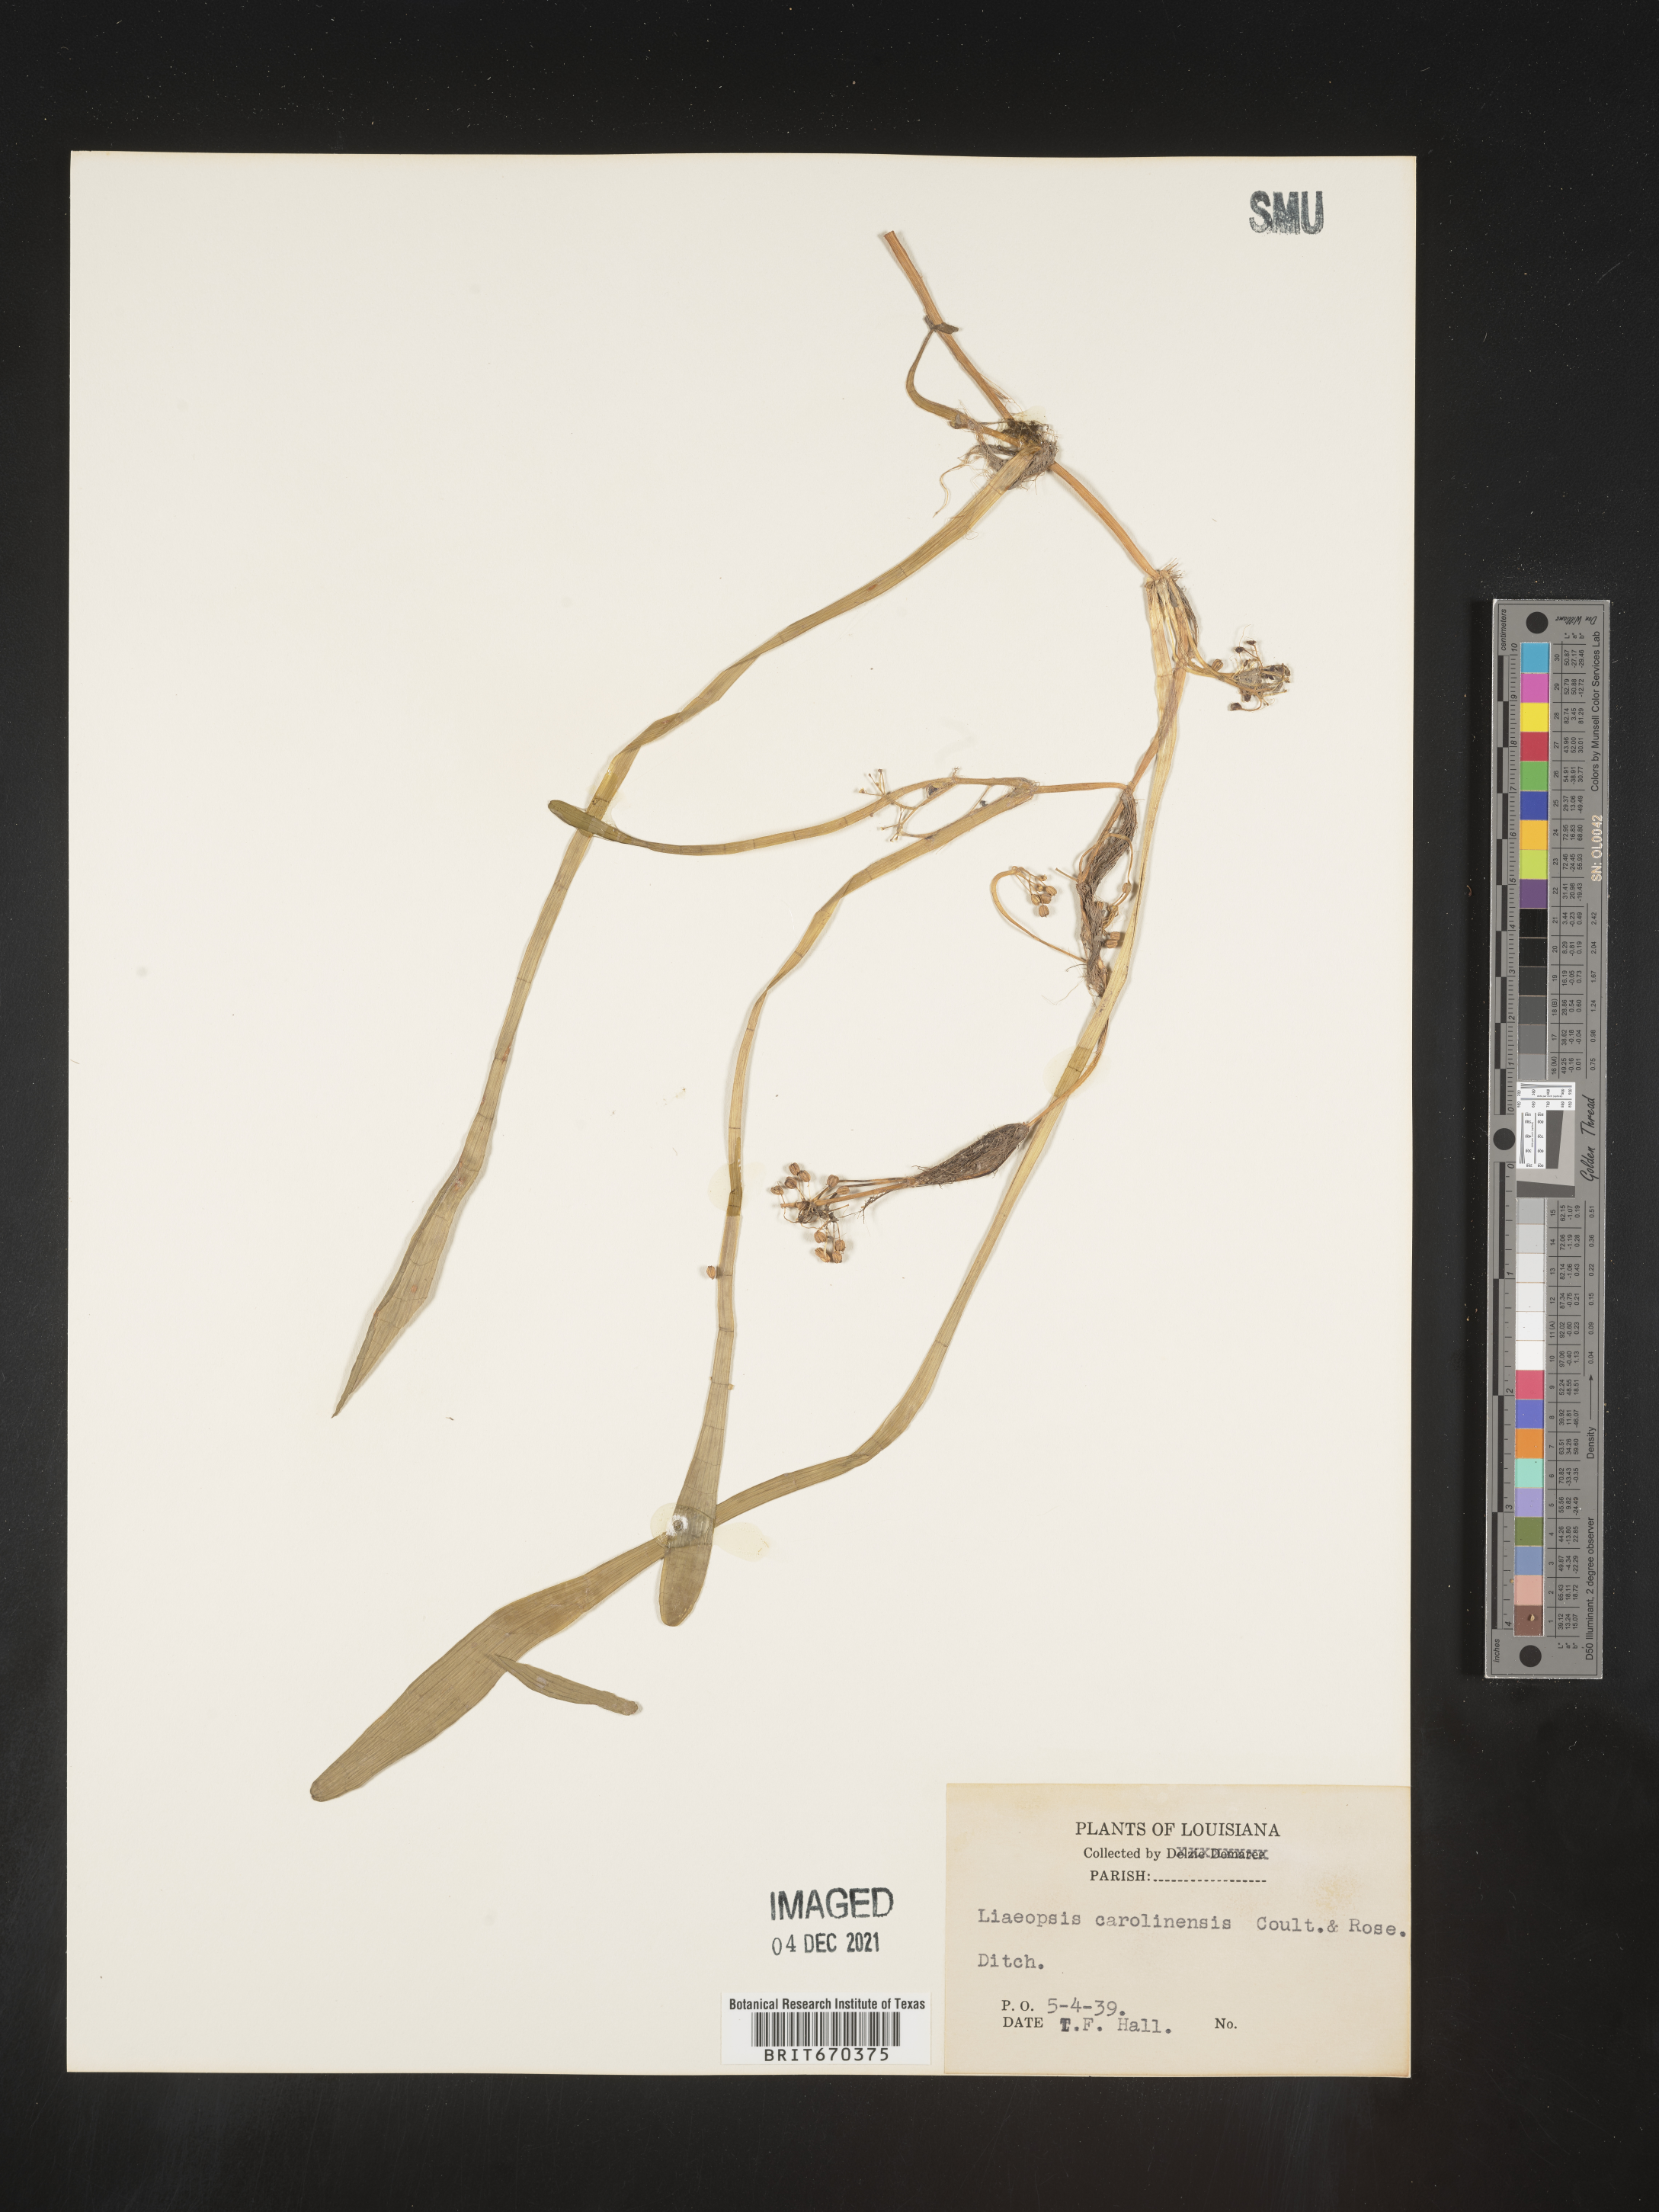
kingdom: Plantae
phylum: Tracheophyta
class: Magnoliopsida
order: Apiales
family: Apiaceae
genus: Lilaeopsis
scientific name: Lilaeopsis
